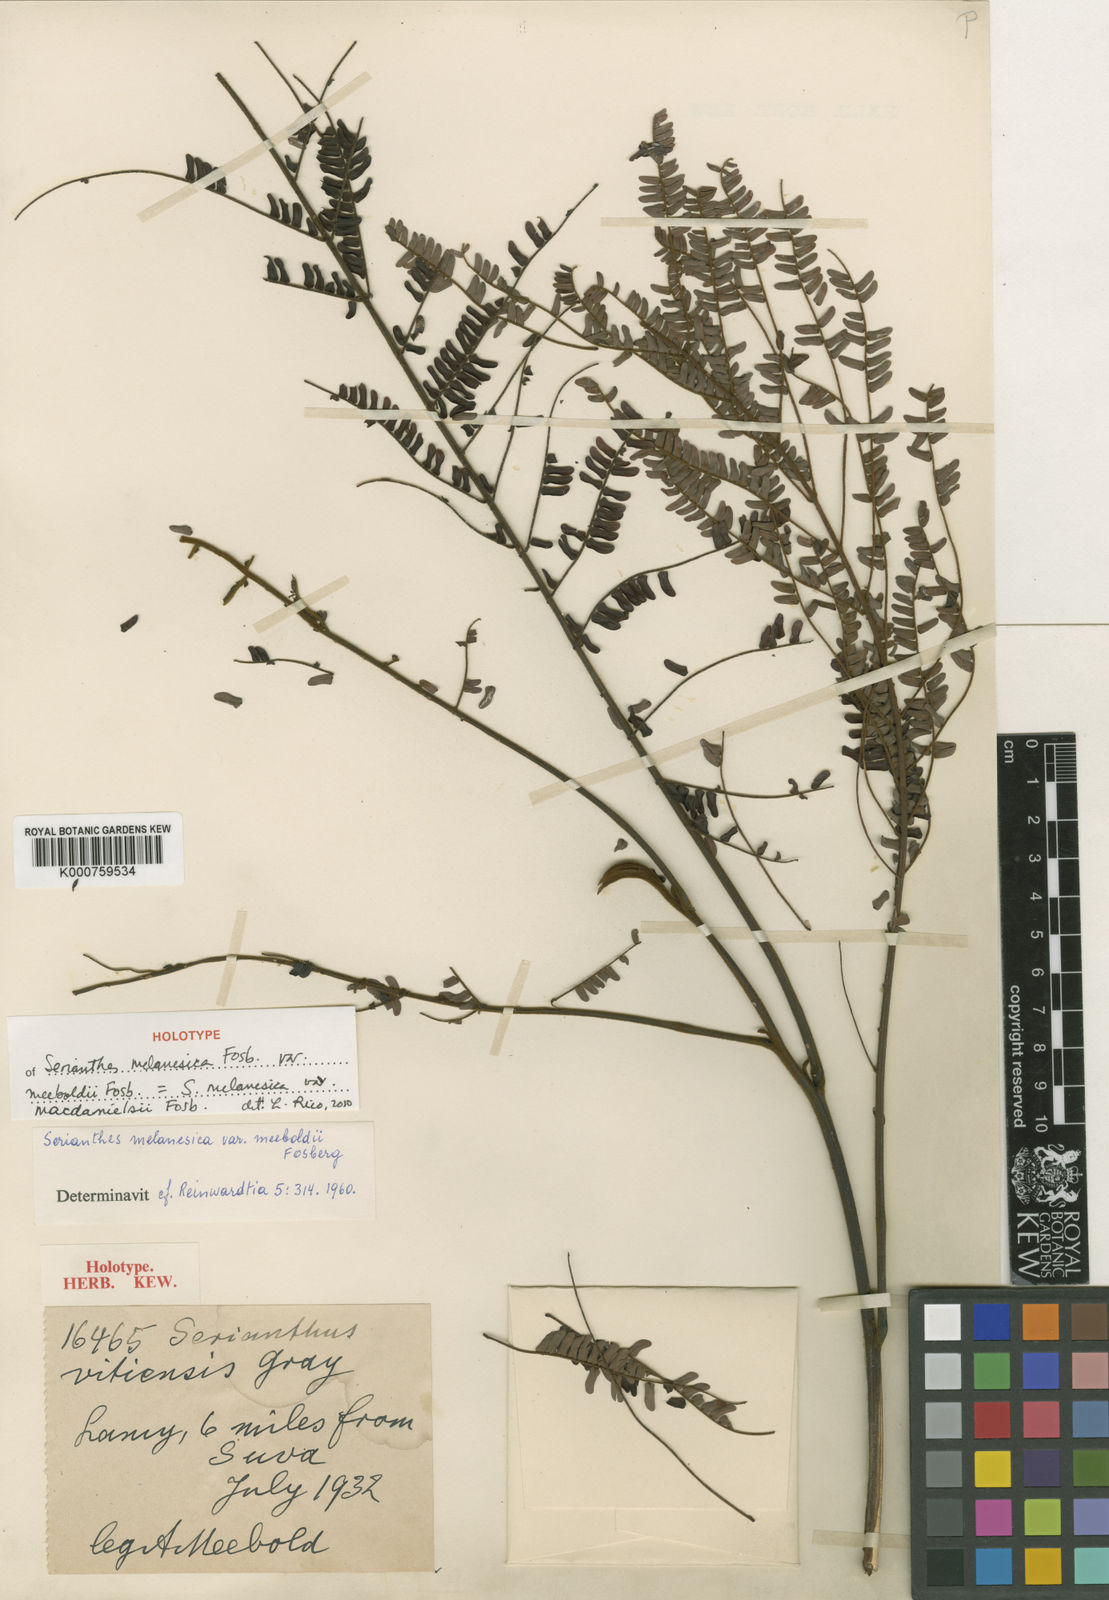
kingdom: Plantae
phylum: Tracheophyta
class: Magnoliopsida
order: Fabales
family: Fabaceae
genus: Serianthes
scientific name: Serianthes melanesica
